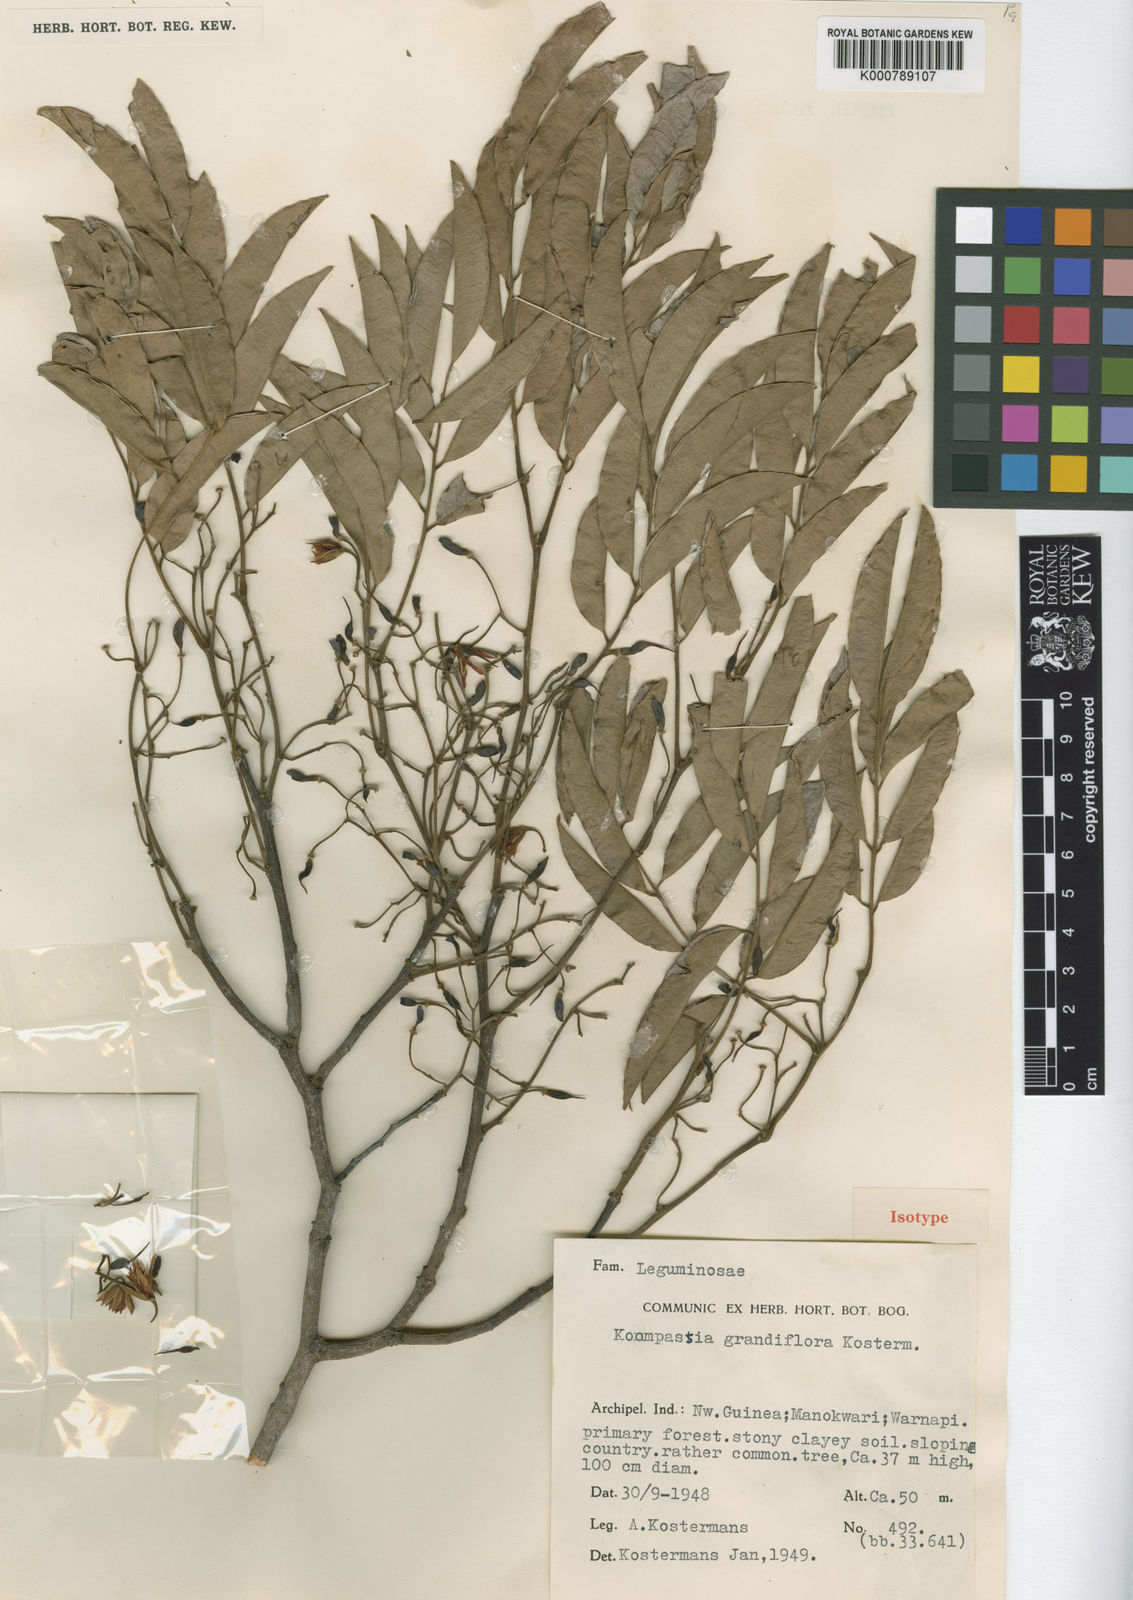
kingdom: Plantae
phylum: Tracheophyta
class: Magnoliopsida
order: Fabales
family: Fabaceae
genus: Koompassia
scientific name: Koompassia grandiflora
